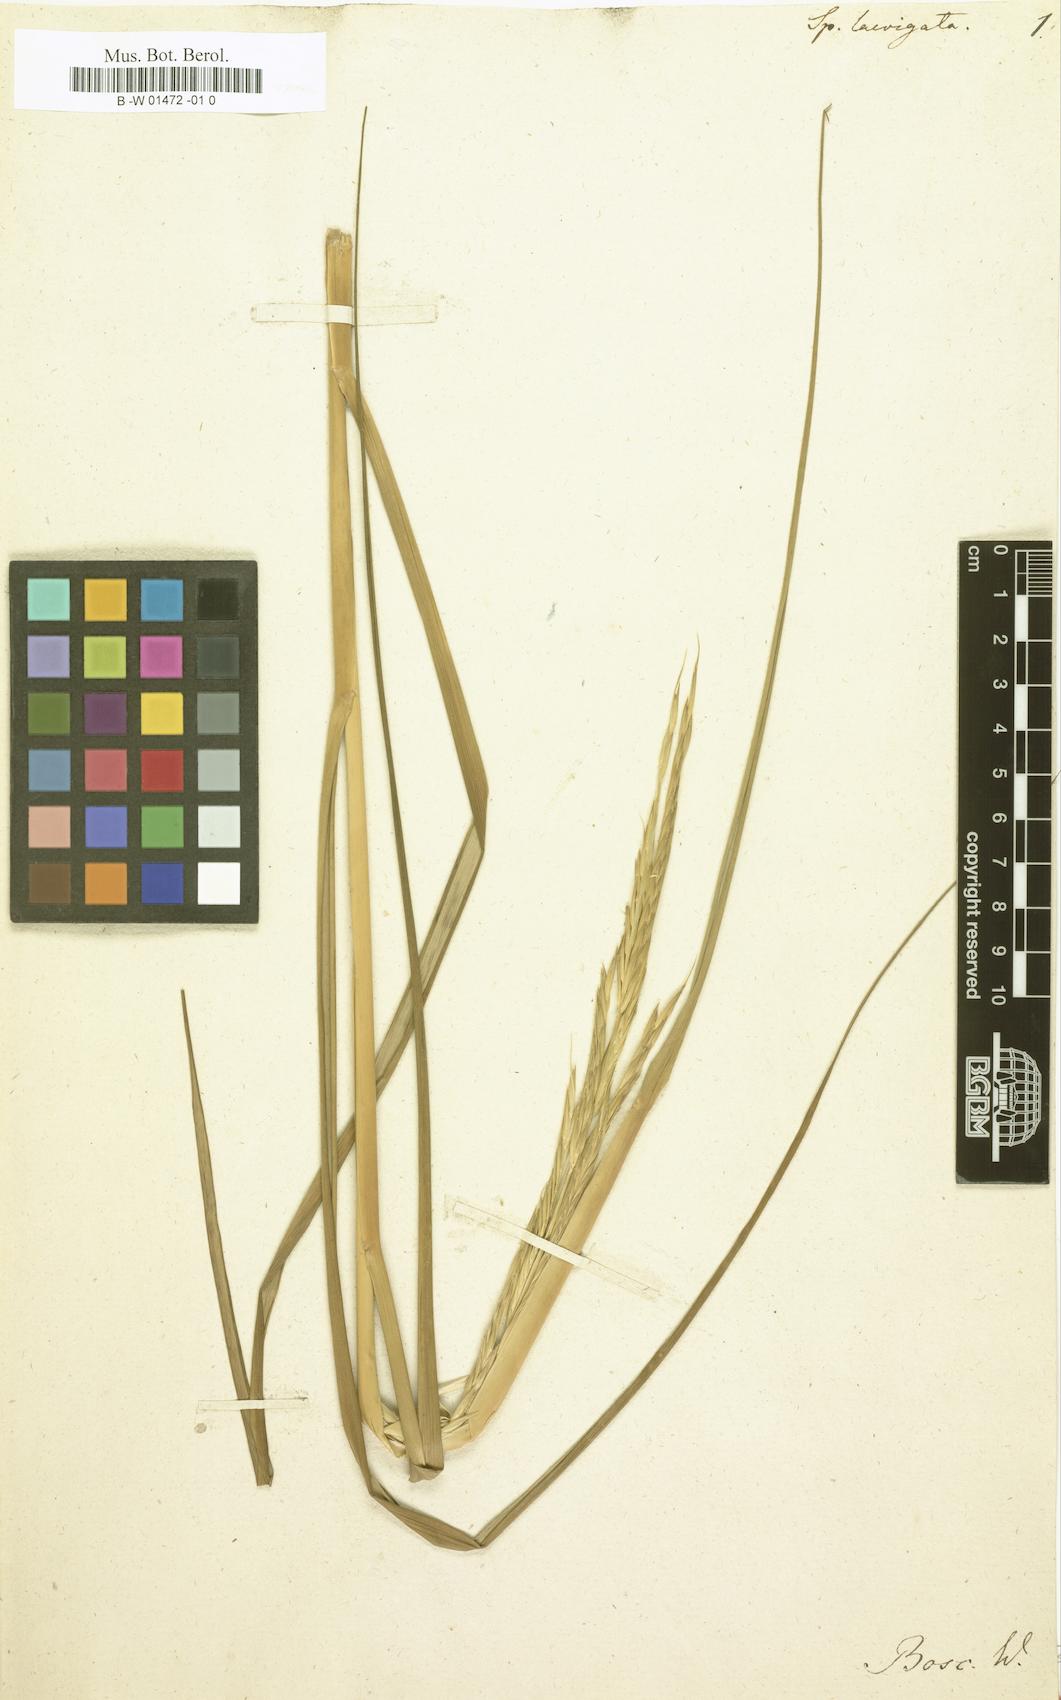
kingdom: Plantae
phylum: Tracheophyta
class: Liliopsida
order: Poales
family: Poaceae
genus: Sporobolus
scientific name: Sporobolus alterniflorus
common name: Atlantic cordgrass
